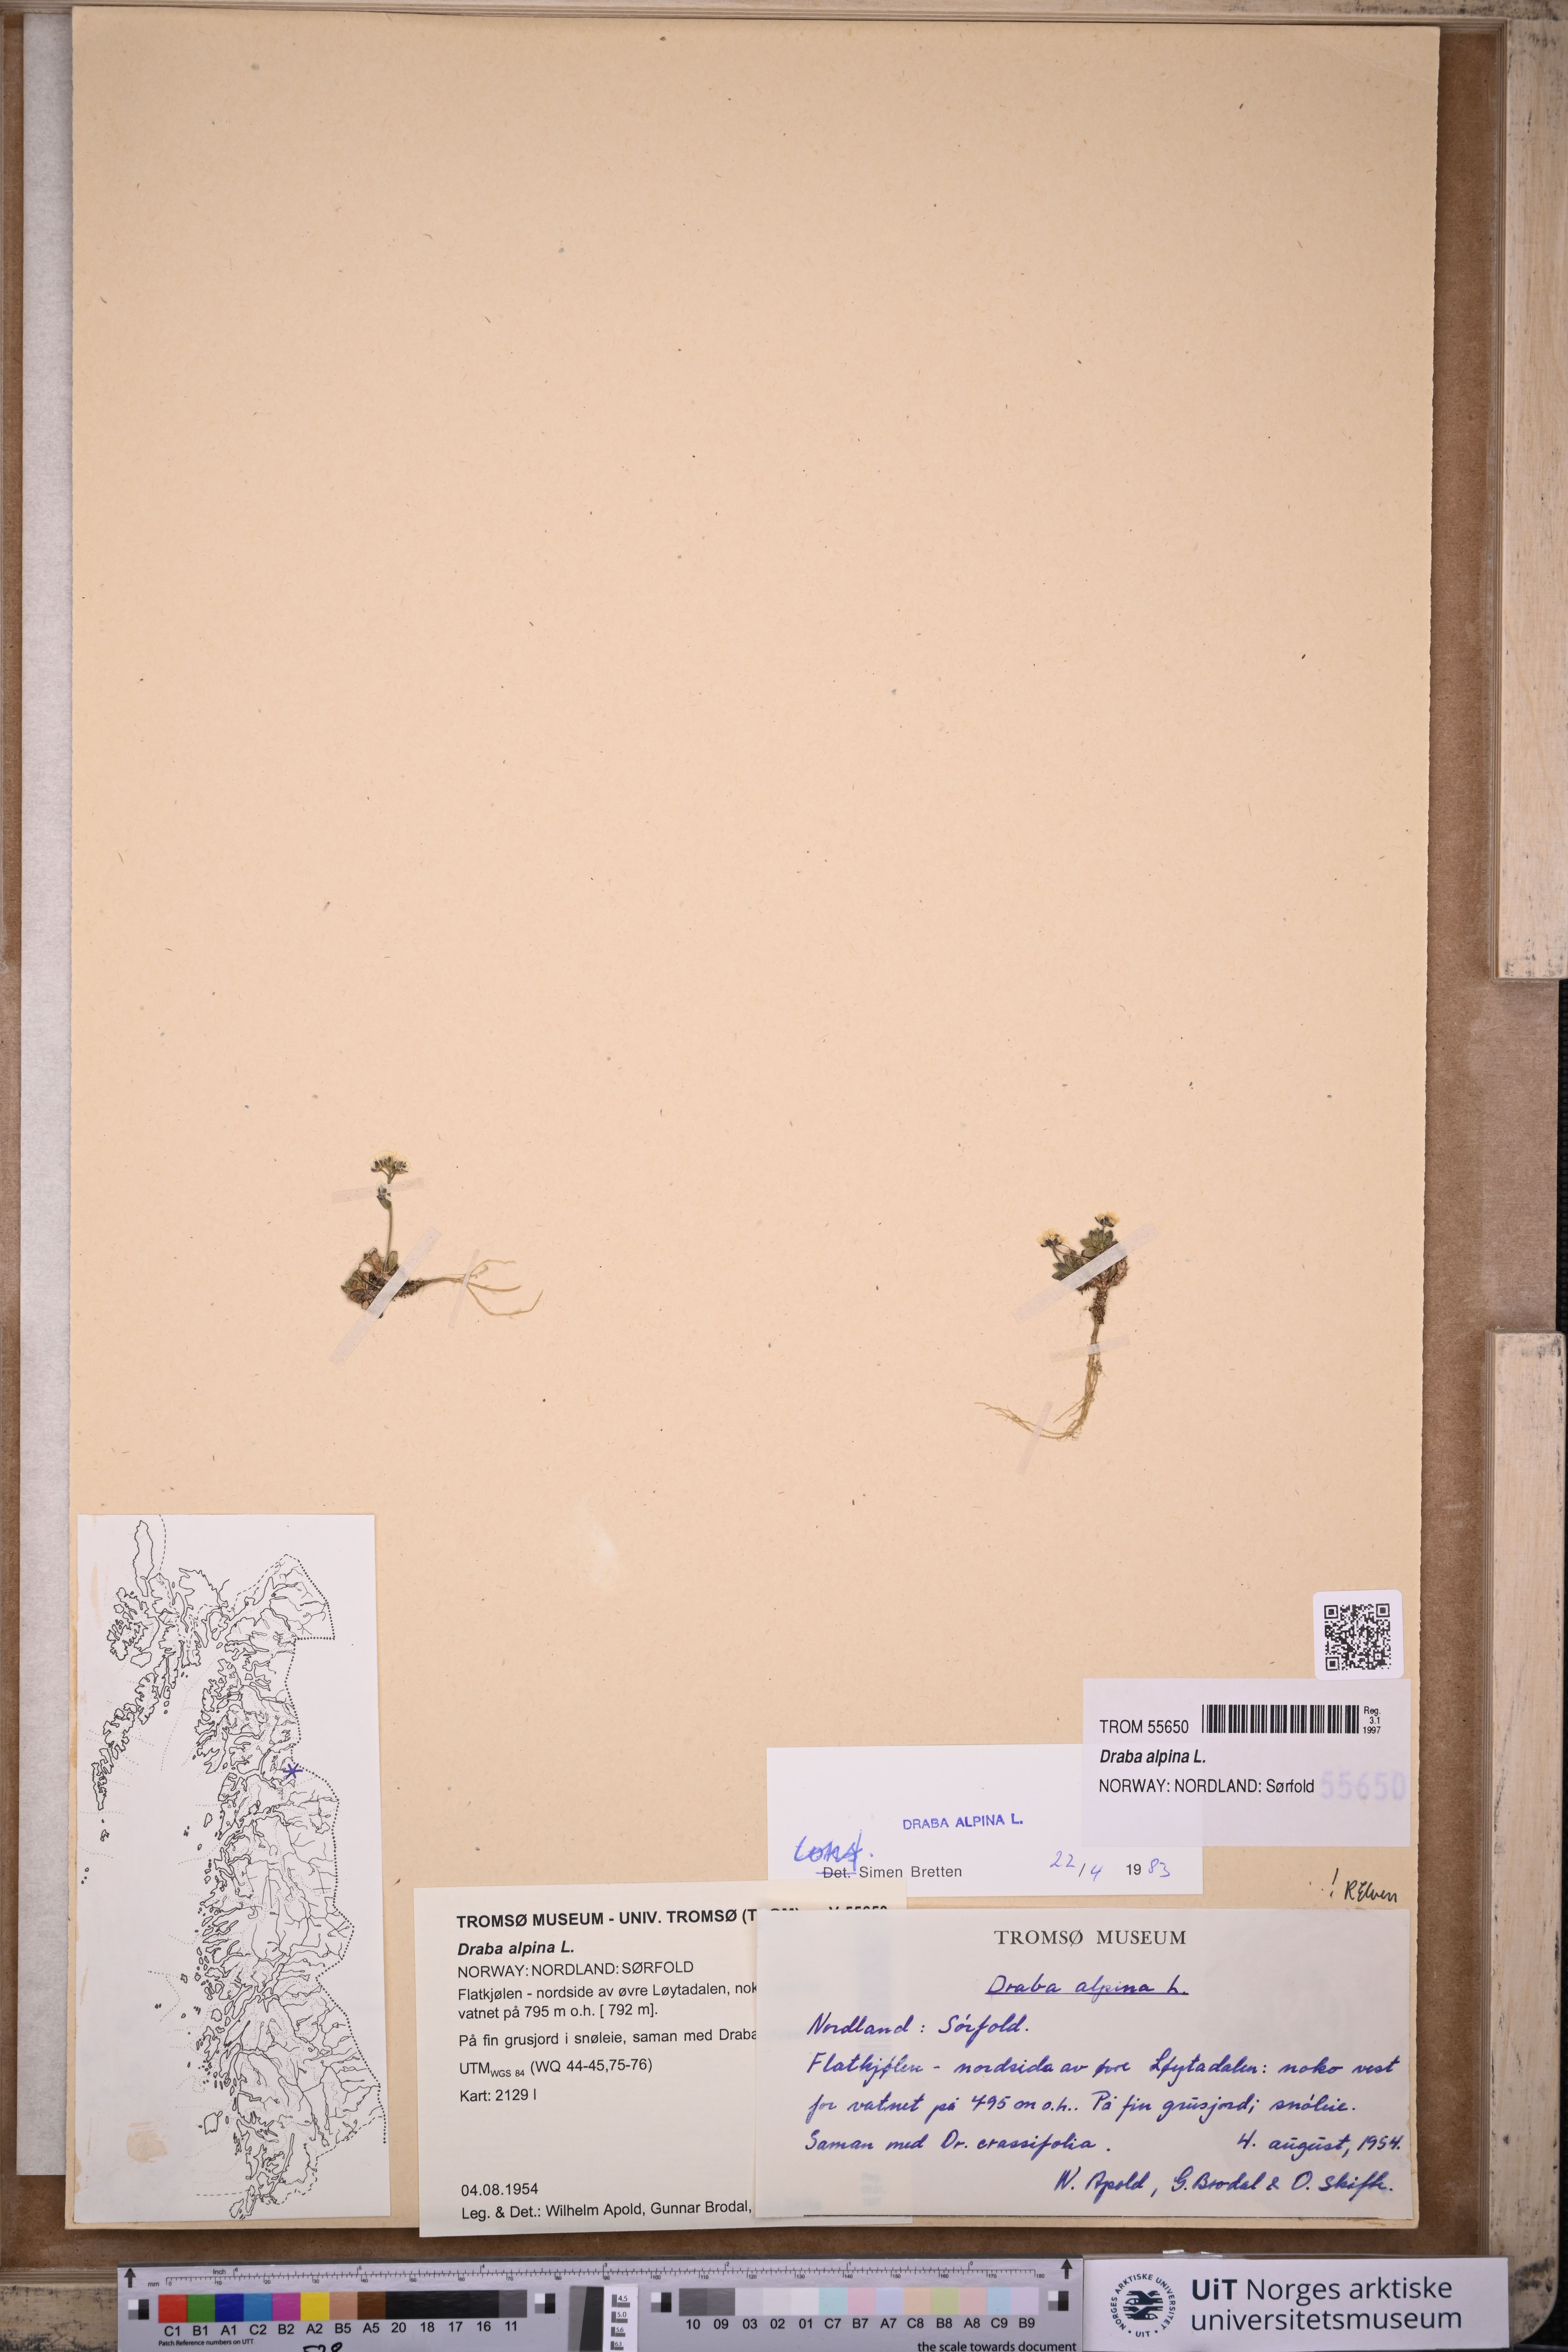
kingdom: Plantae
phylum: Tracheophyta
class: Magnoliopsida
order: Brassicales
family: Brassicaceae
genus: Draba
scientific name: Draba alpina
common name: Alpine draba
